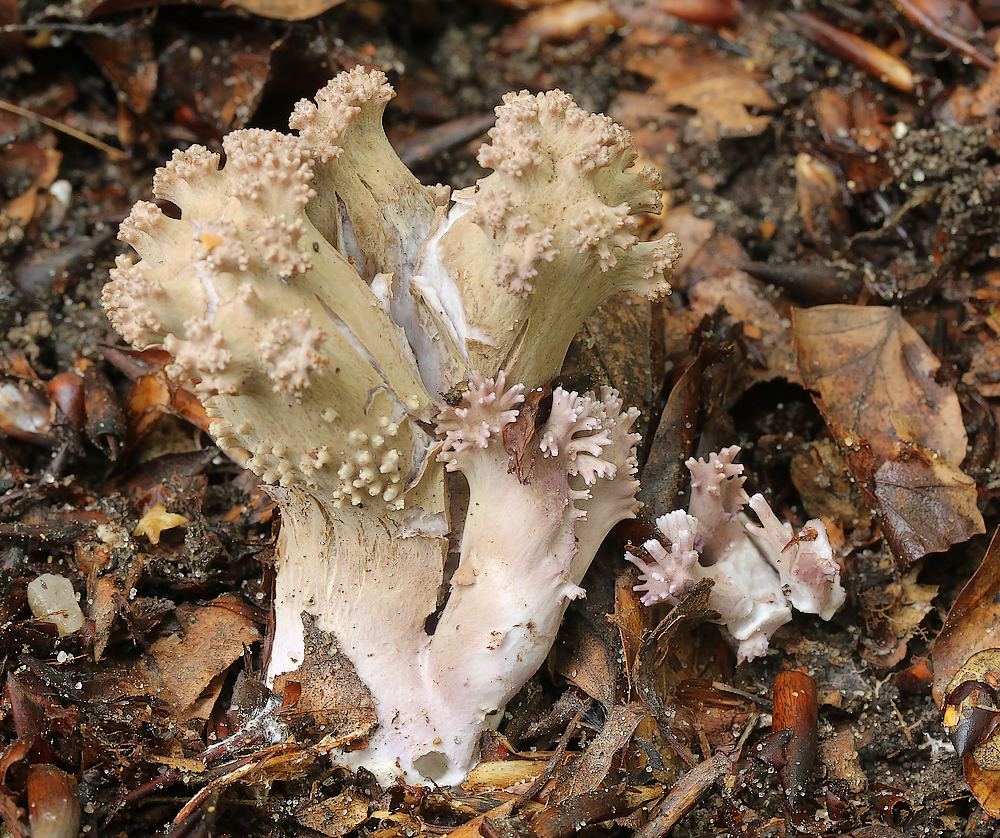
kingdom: Fungi
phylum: Basidiomycota
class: Agaricomycetes
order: Gomphales
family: Gomphaceae
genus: Ramaria
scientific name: Ramaria fumigata
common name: violet koralsvamp
